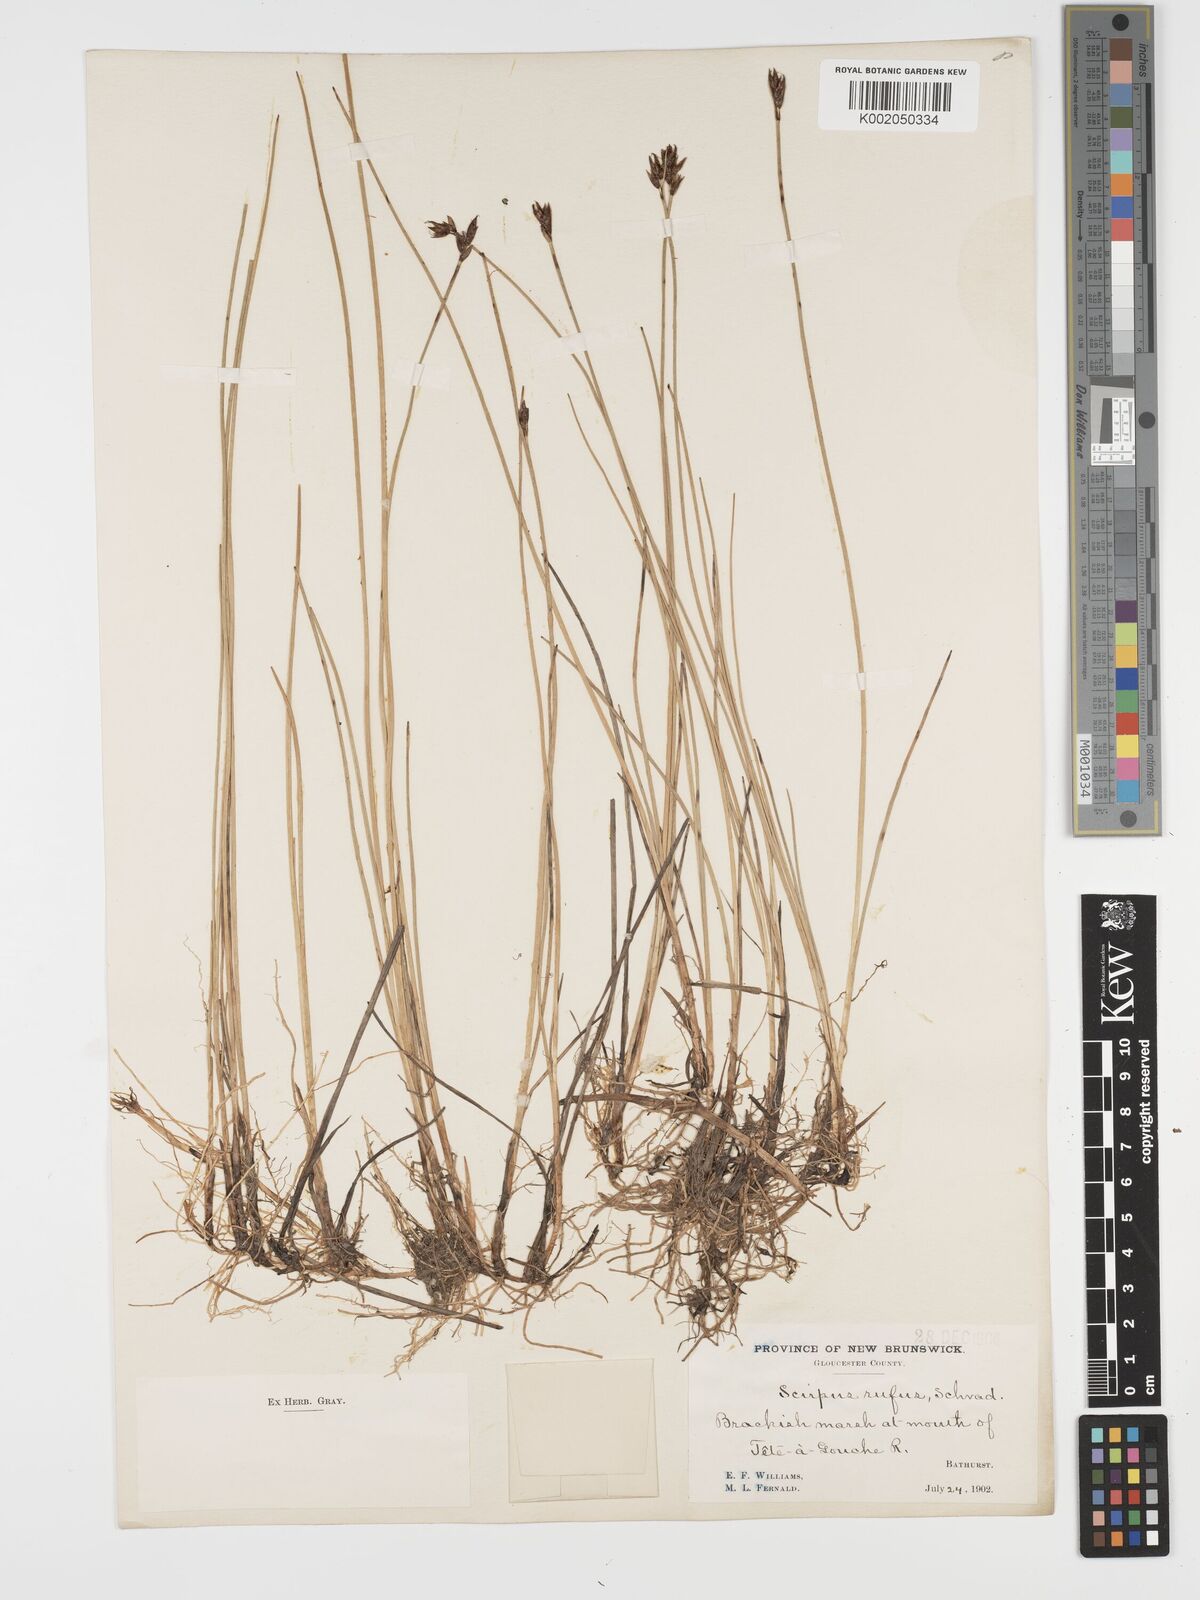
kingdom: Plantae
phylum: Tracheophyta
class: Liliopsida
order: Poales
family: Cyperaceae
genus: Blysmus
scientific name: Blysmus rufus
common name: Saltmarsh flat-sedge
